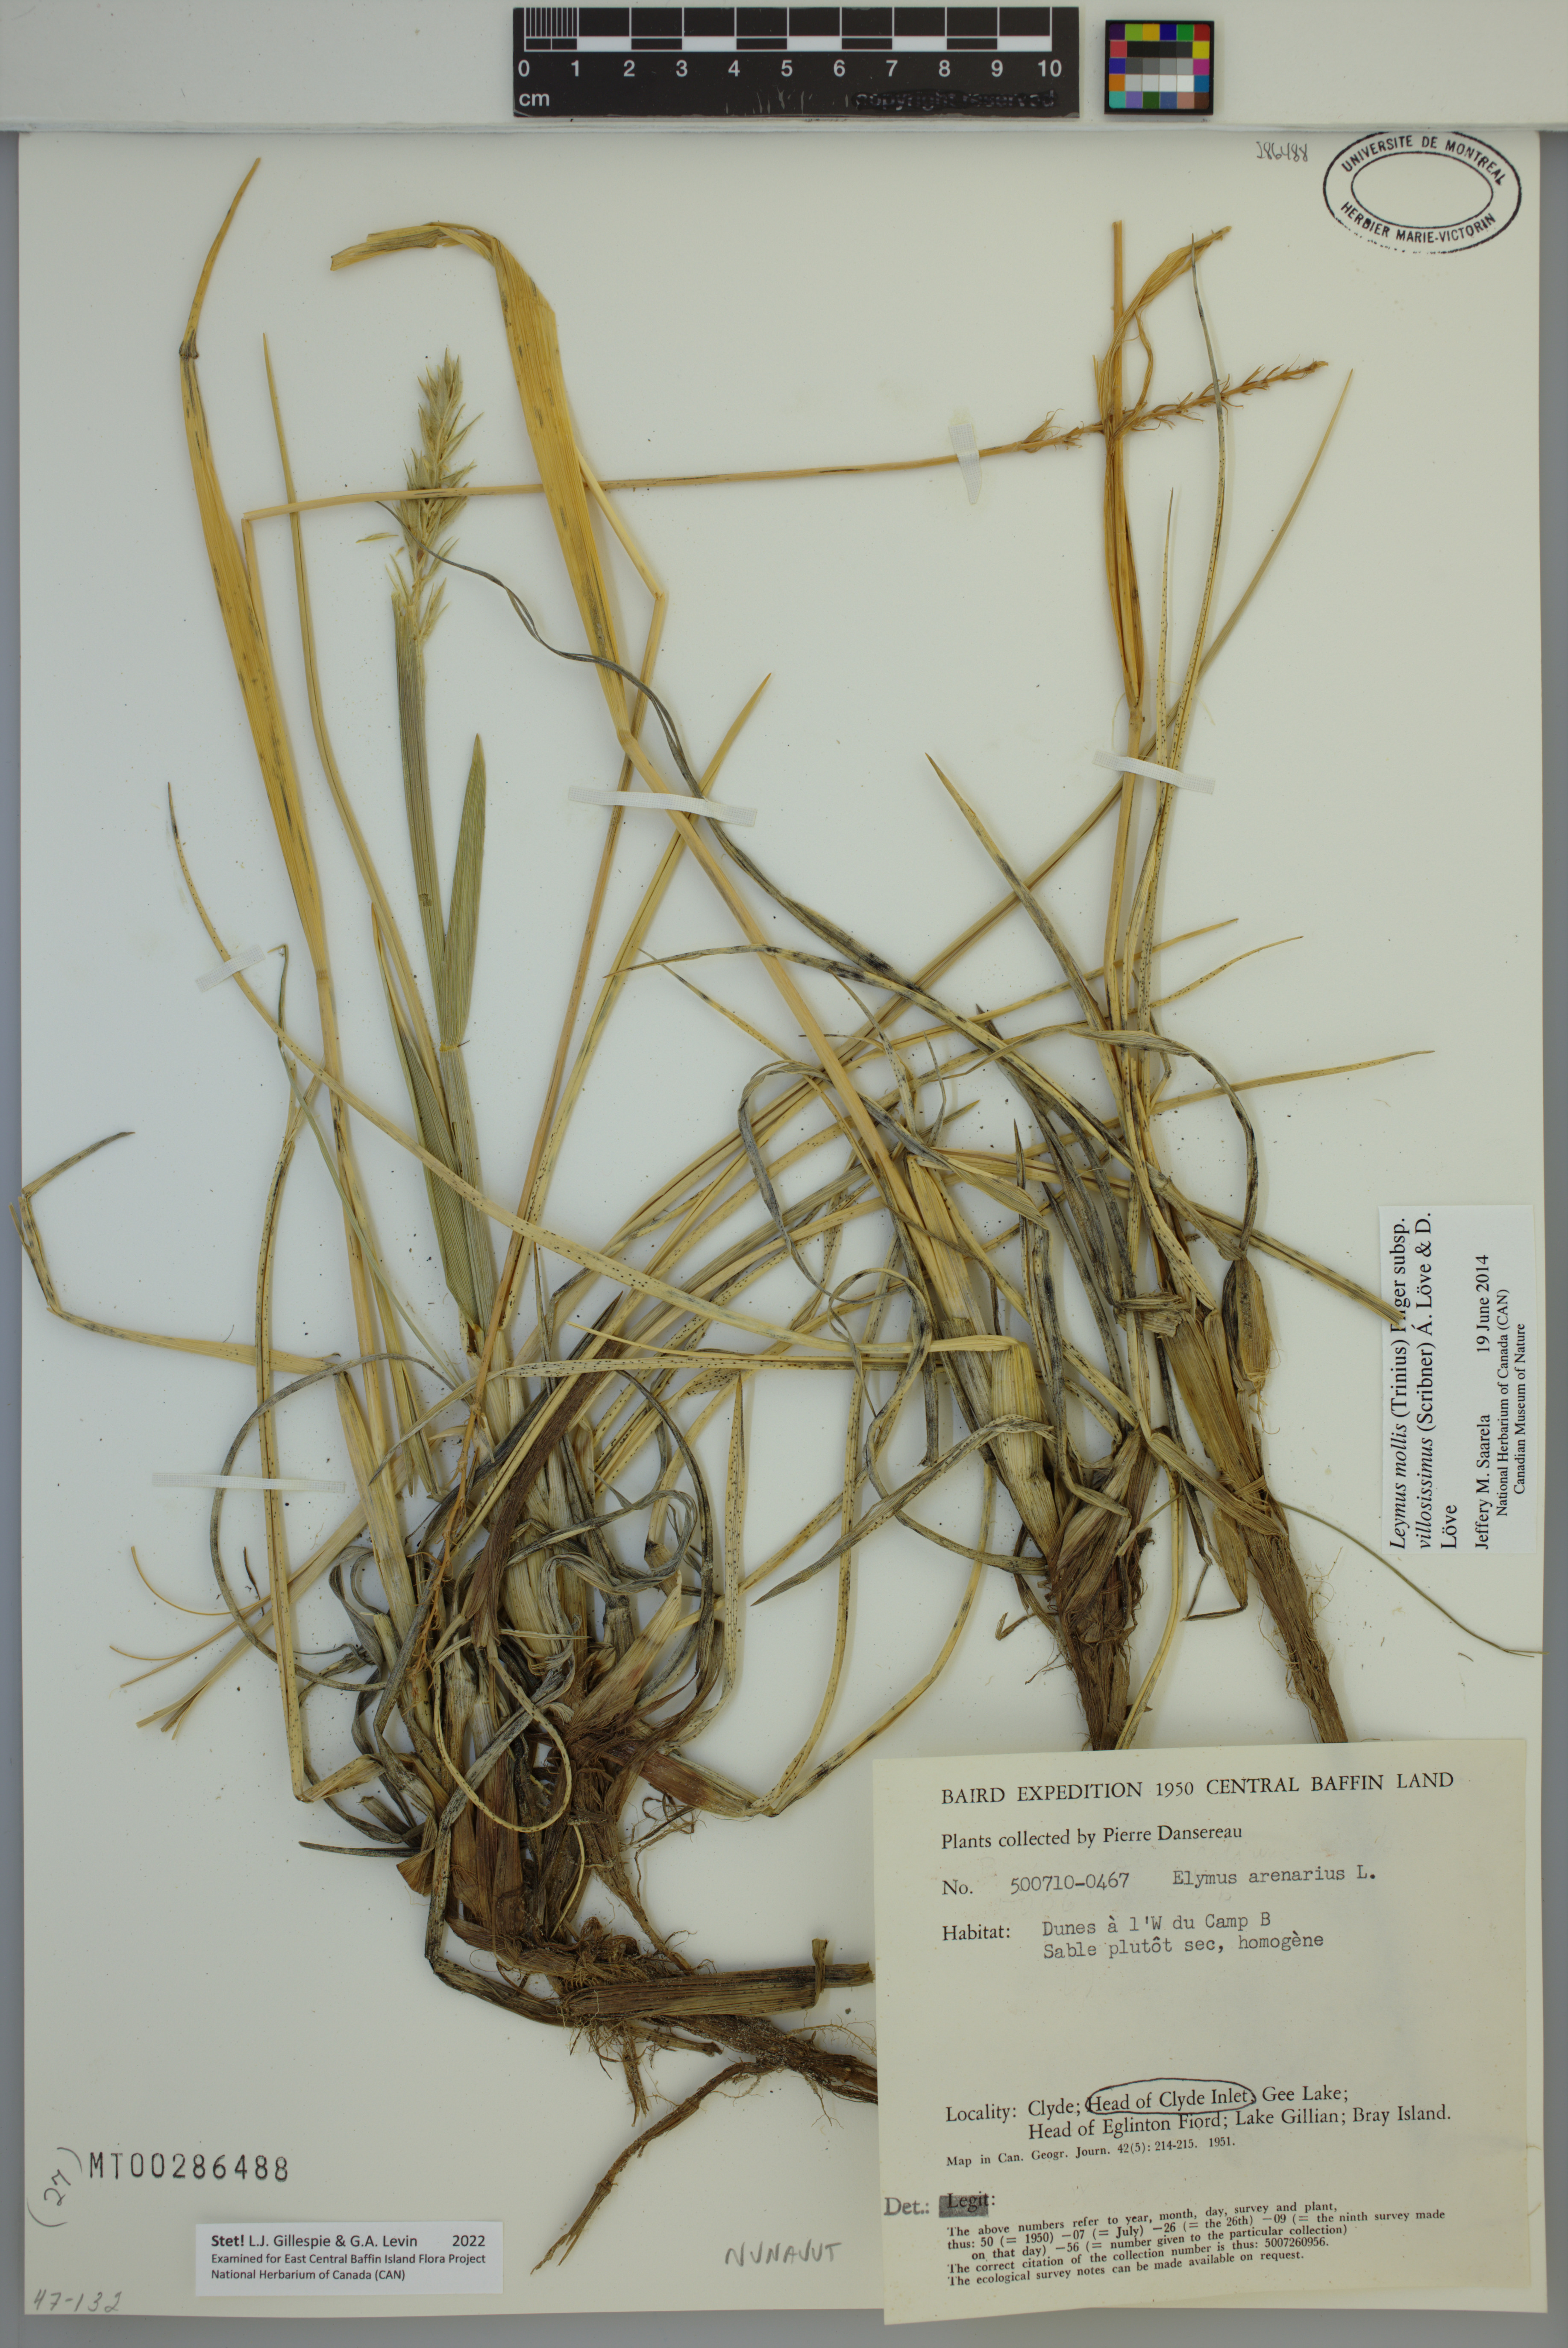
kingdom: Plantae
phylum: Tracheophyta
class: Liliopsida
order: Poales
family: Poaceae
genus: Leymus
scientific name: Leymus villosissimus
